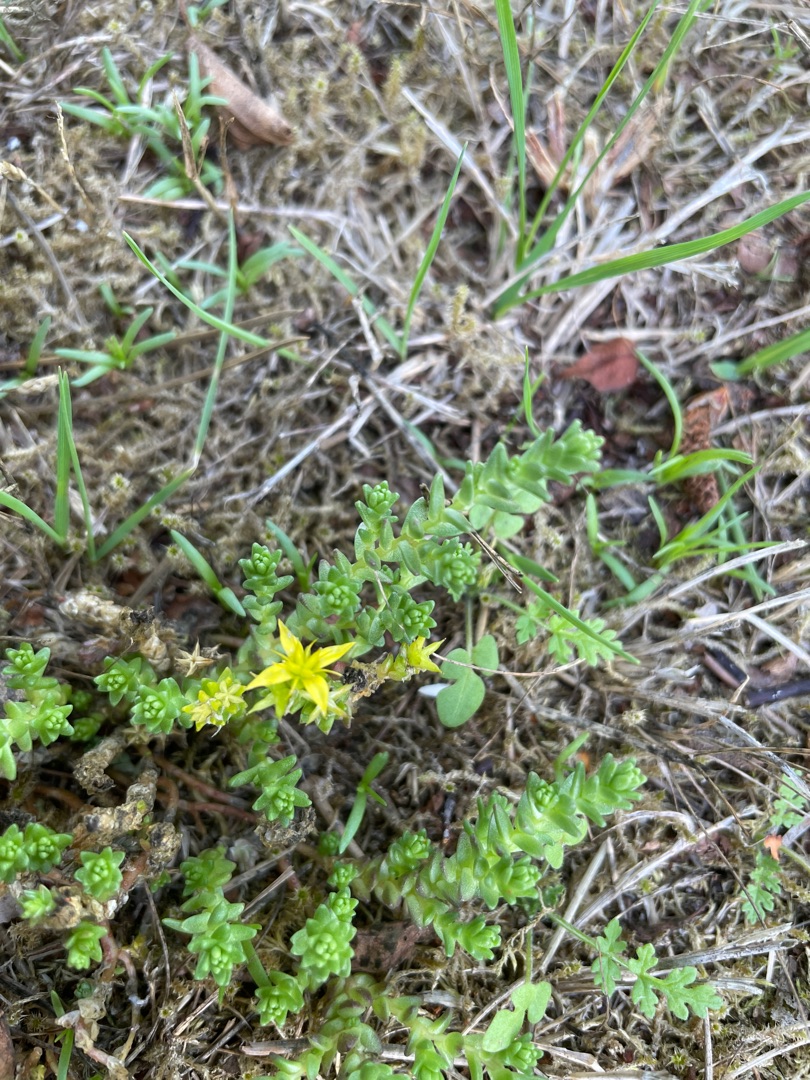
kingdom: Plantae
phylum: Tracheophyta
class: Magnoliopsida
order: Saxifragales
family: Crassulaceae
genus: Sedum
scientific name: Sedum acre
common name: Bidende stenurt
